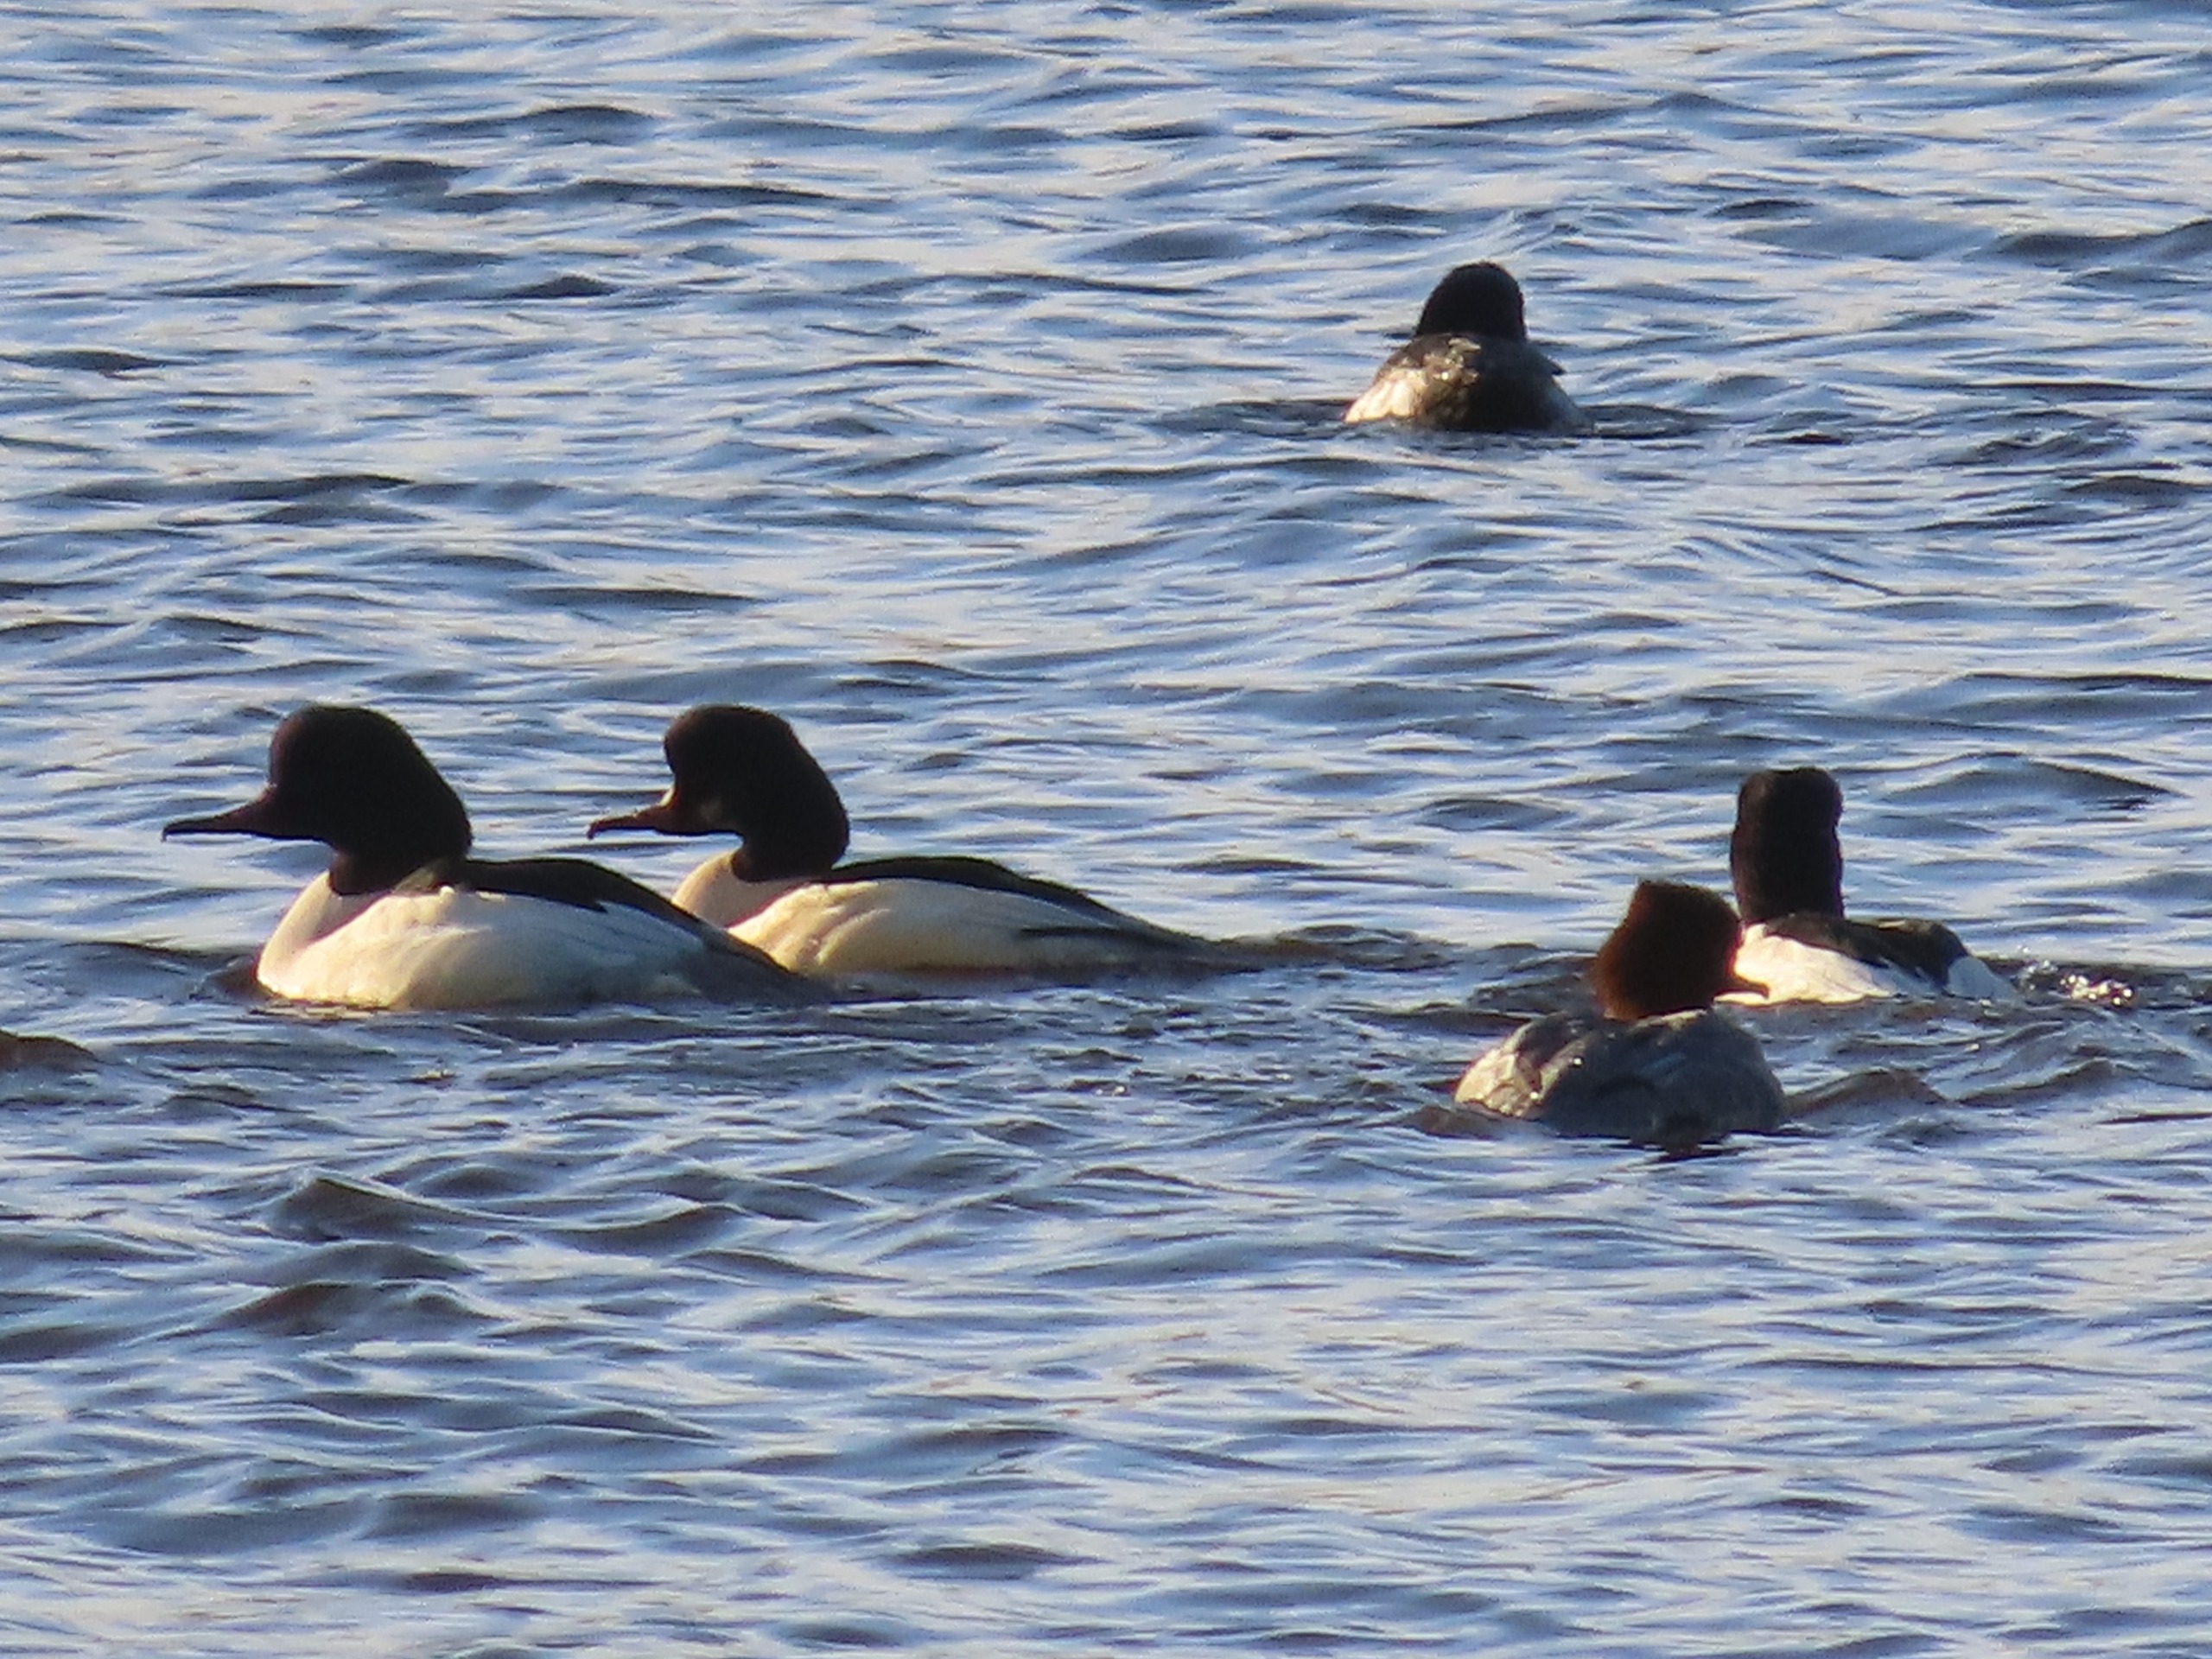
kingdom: Animalia
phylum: Chordata
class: Aves
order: Anseriformes
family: Anatidae
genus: Mergus
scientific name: Mergus merganser
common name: Stor skallesluger
